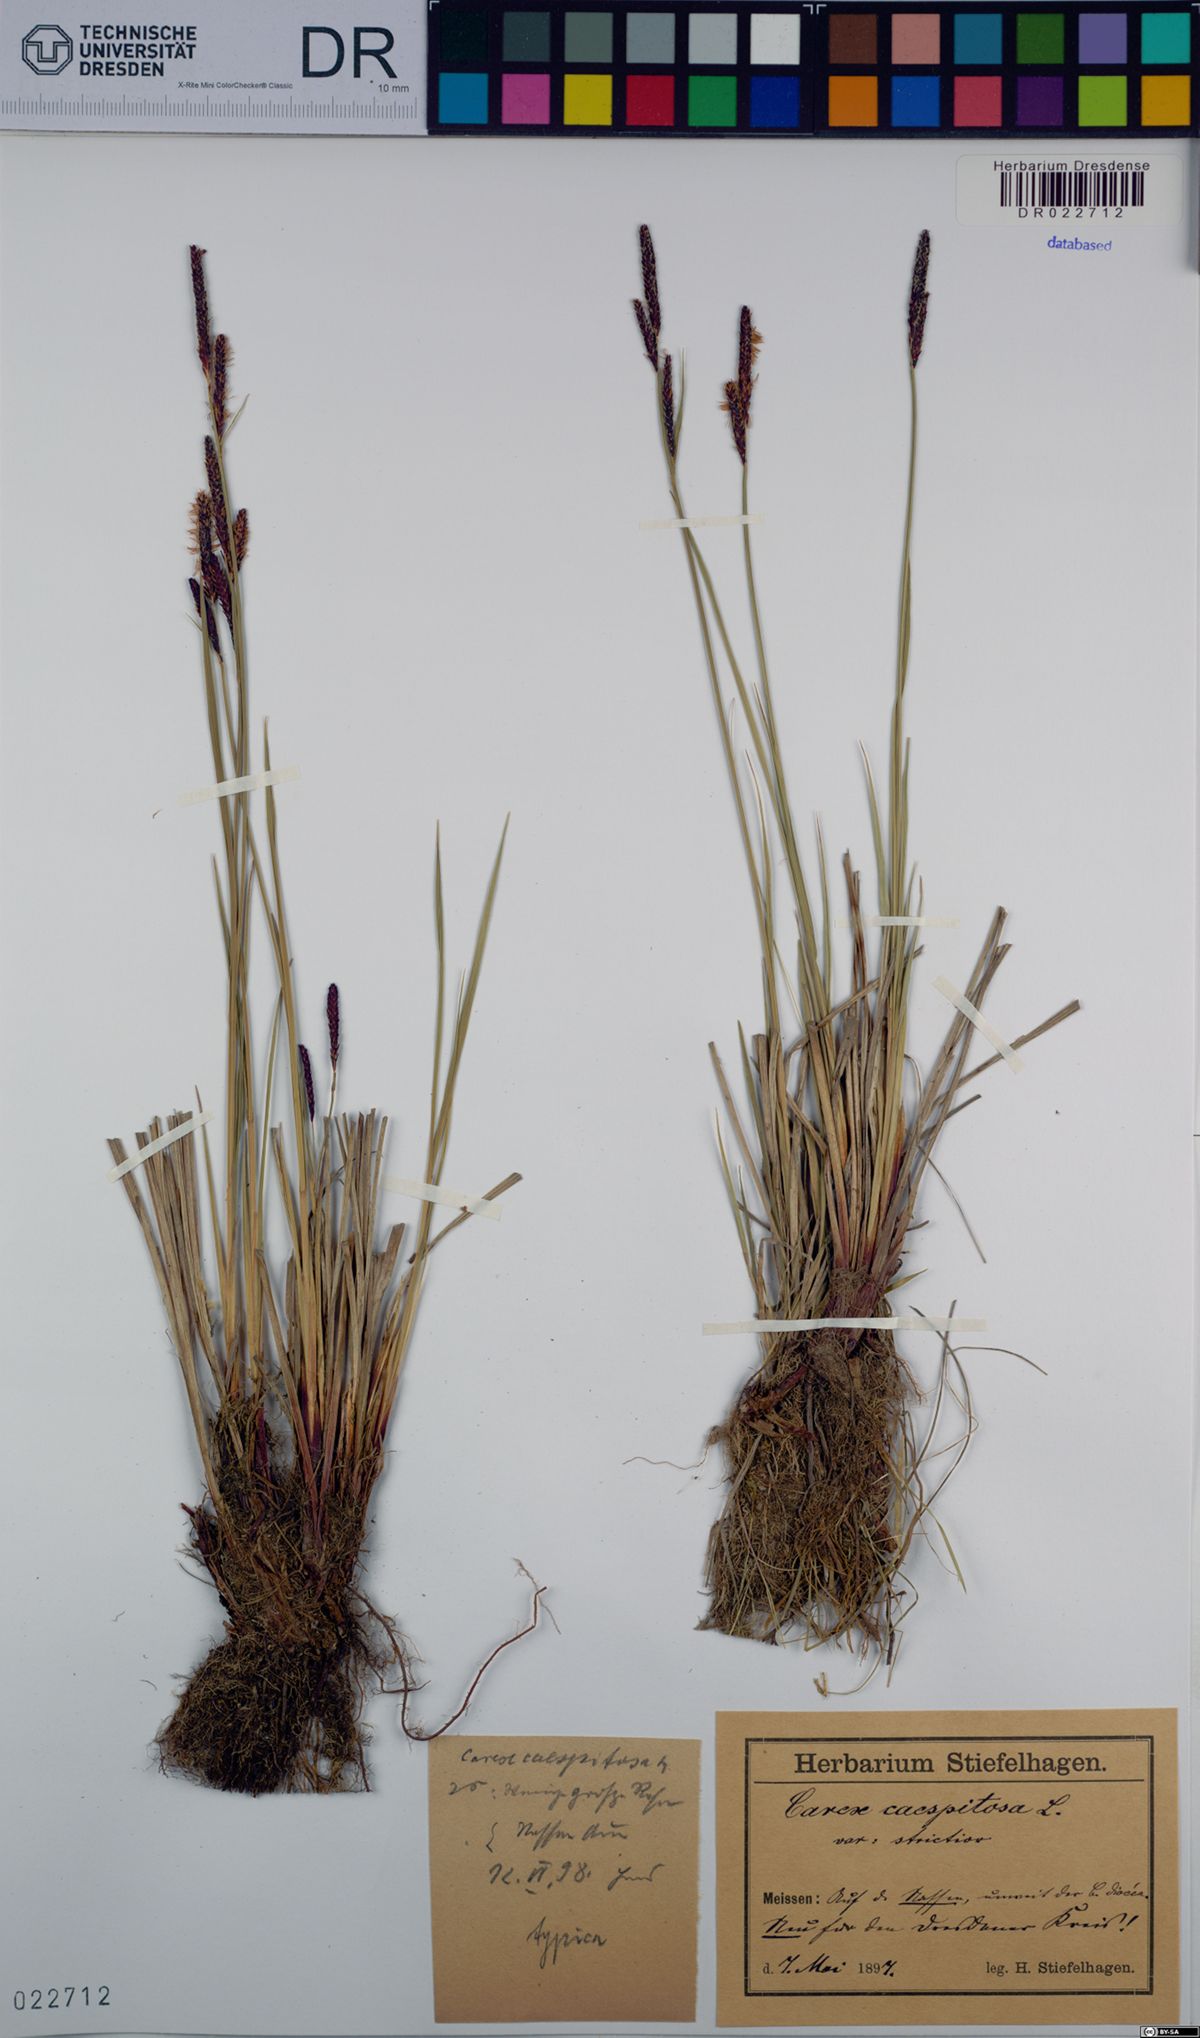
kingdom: Plantae
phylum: Tracheophyta
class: Liliopsida
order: Poales
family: Cyperaceae
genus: Carex
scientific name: Carex cespitosa
